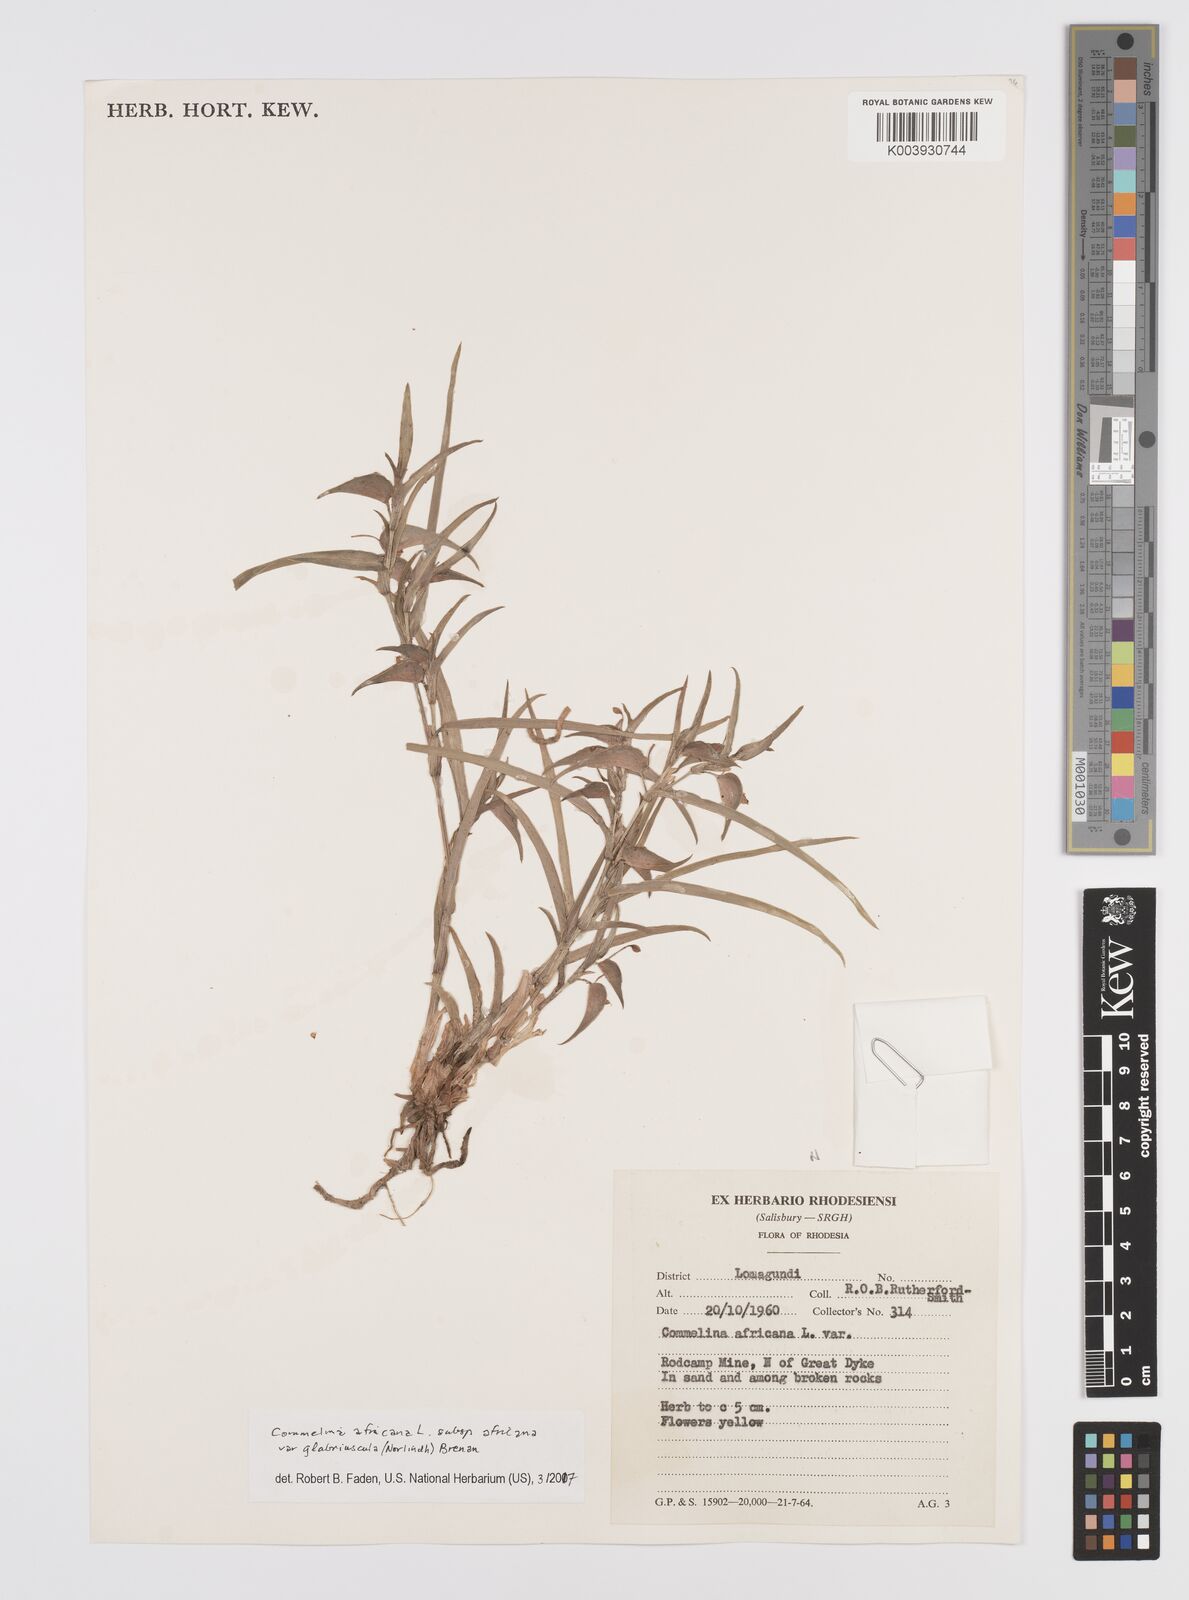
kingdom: Plantae
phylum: Tracheophyta
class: Liliopsida
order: Commelinales
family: Commelinaceae
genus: Commelina
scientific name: Commelina africana
